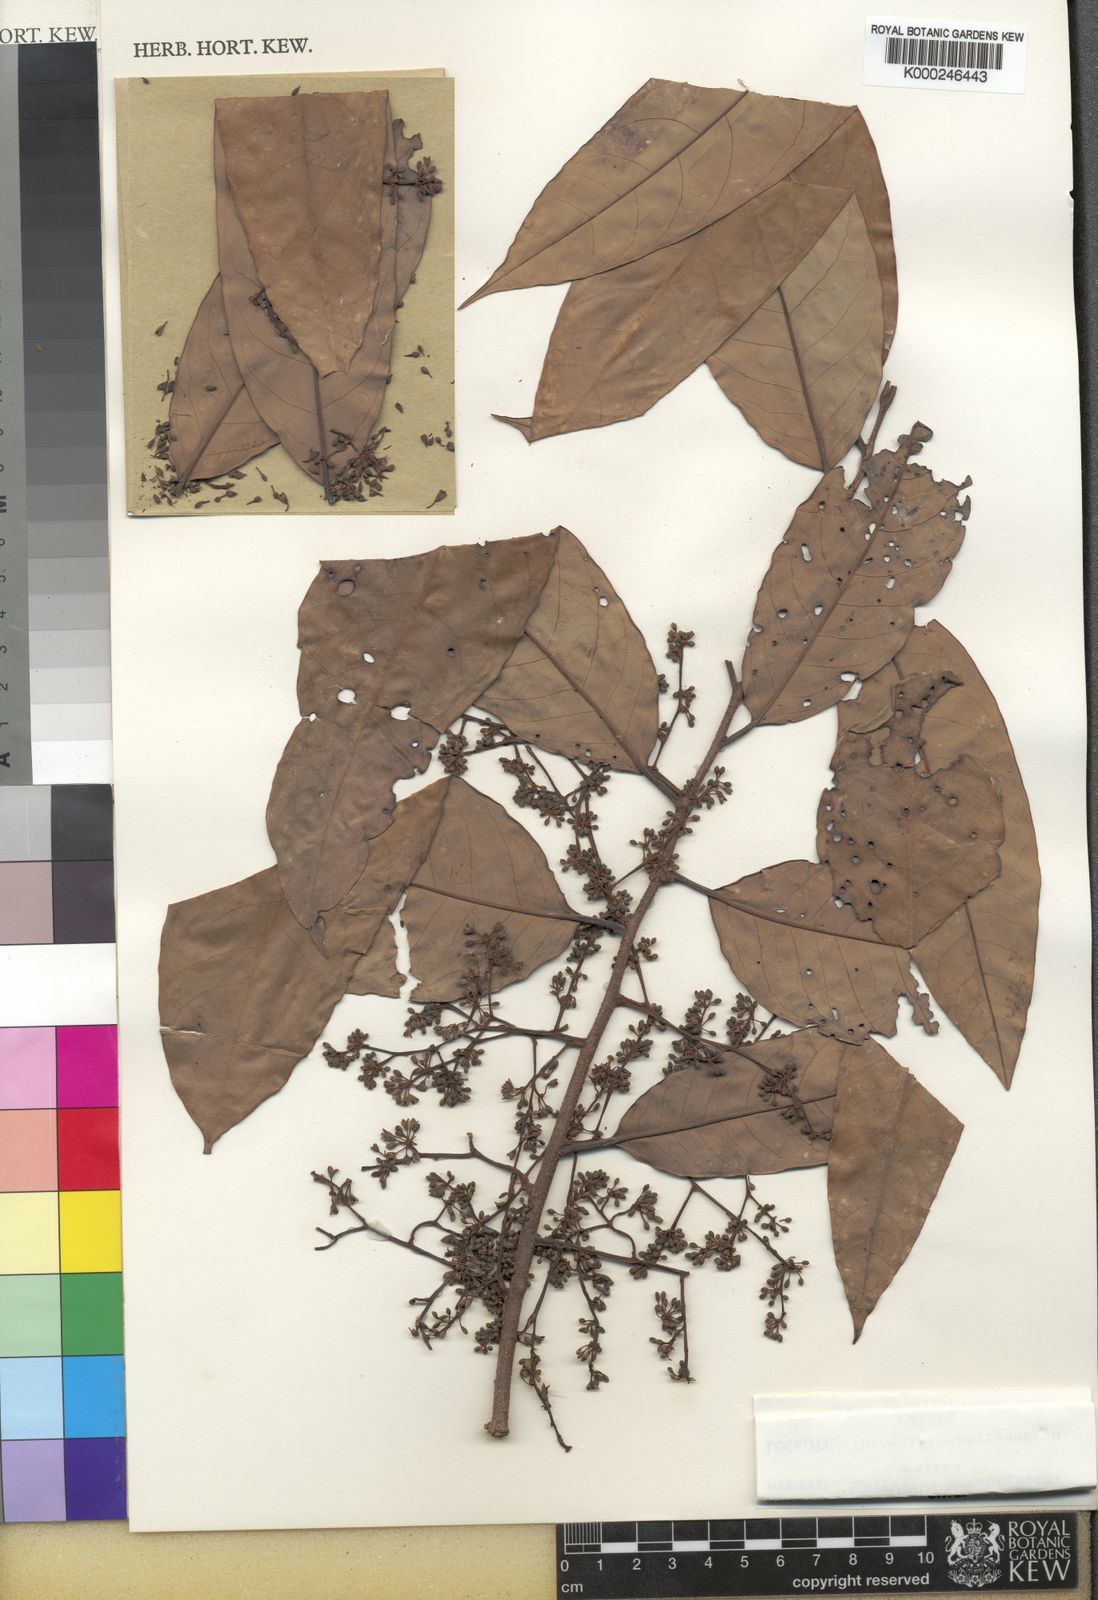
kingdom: Plantae
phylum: Tracheophyta
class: Magnoliopsida
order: Magnoliales
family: Myristicaceae
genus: Gymnacranthera
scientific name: Gymnacranthera canarica
